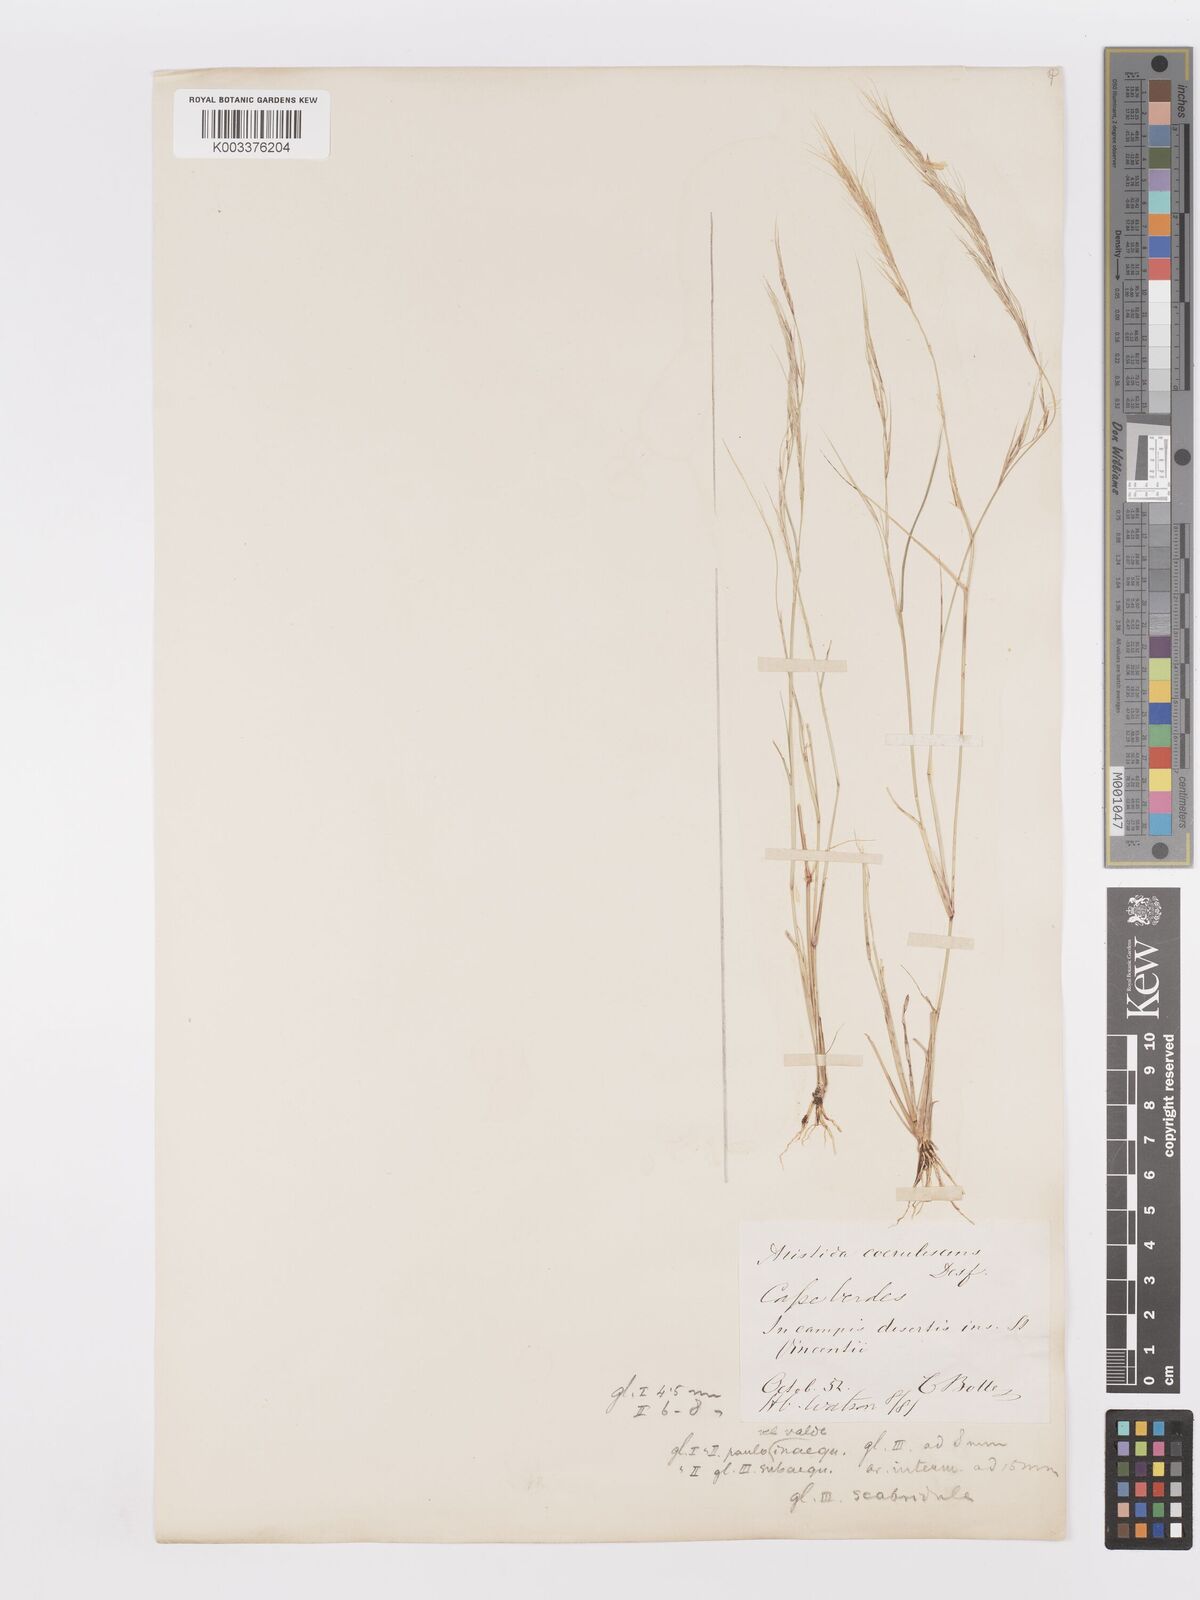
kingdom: Plantae
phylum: Tracheophyta
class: Liliopsida
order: Poales
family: Poaceae
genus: Aristida
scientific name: Aristida adscensionis
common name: Sixweeks threeawn
